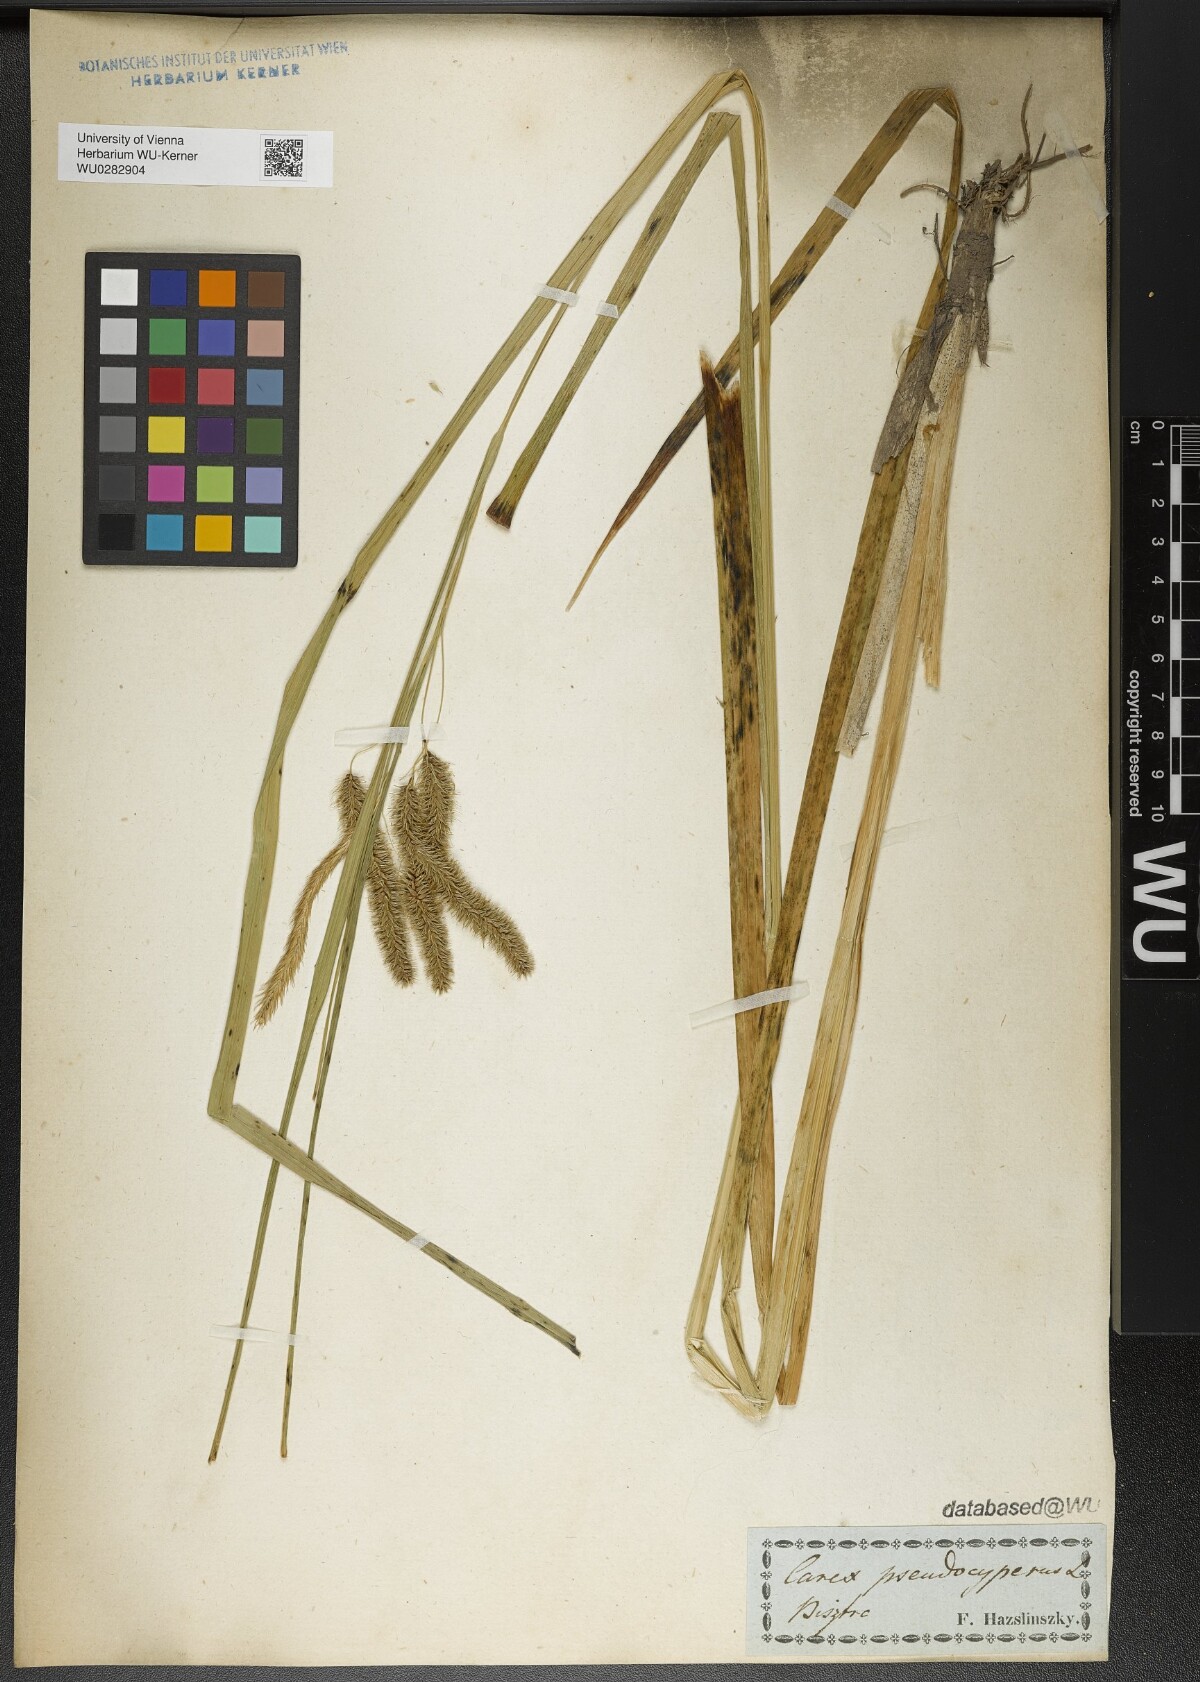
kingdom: Plantae
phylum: Tracheophyta
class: Liliopsida
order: Poales
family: Cyperaceae
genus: Carex
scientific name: Carex pseudocyperus
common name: Cyperus sedge
